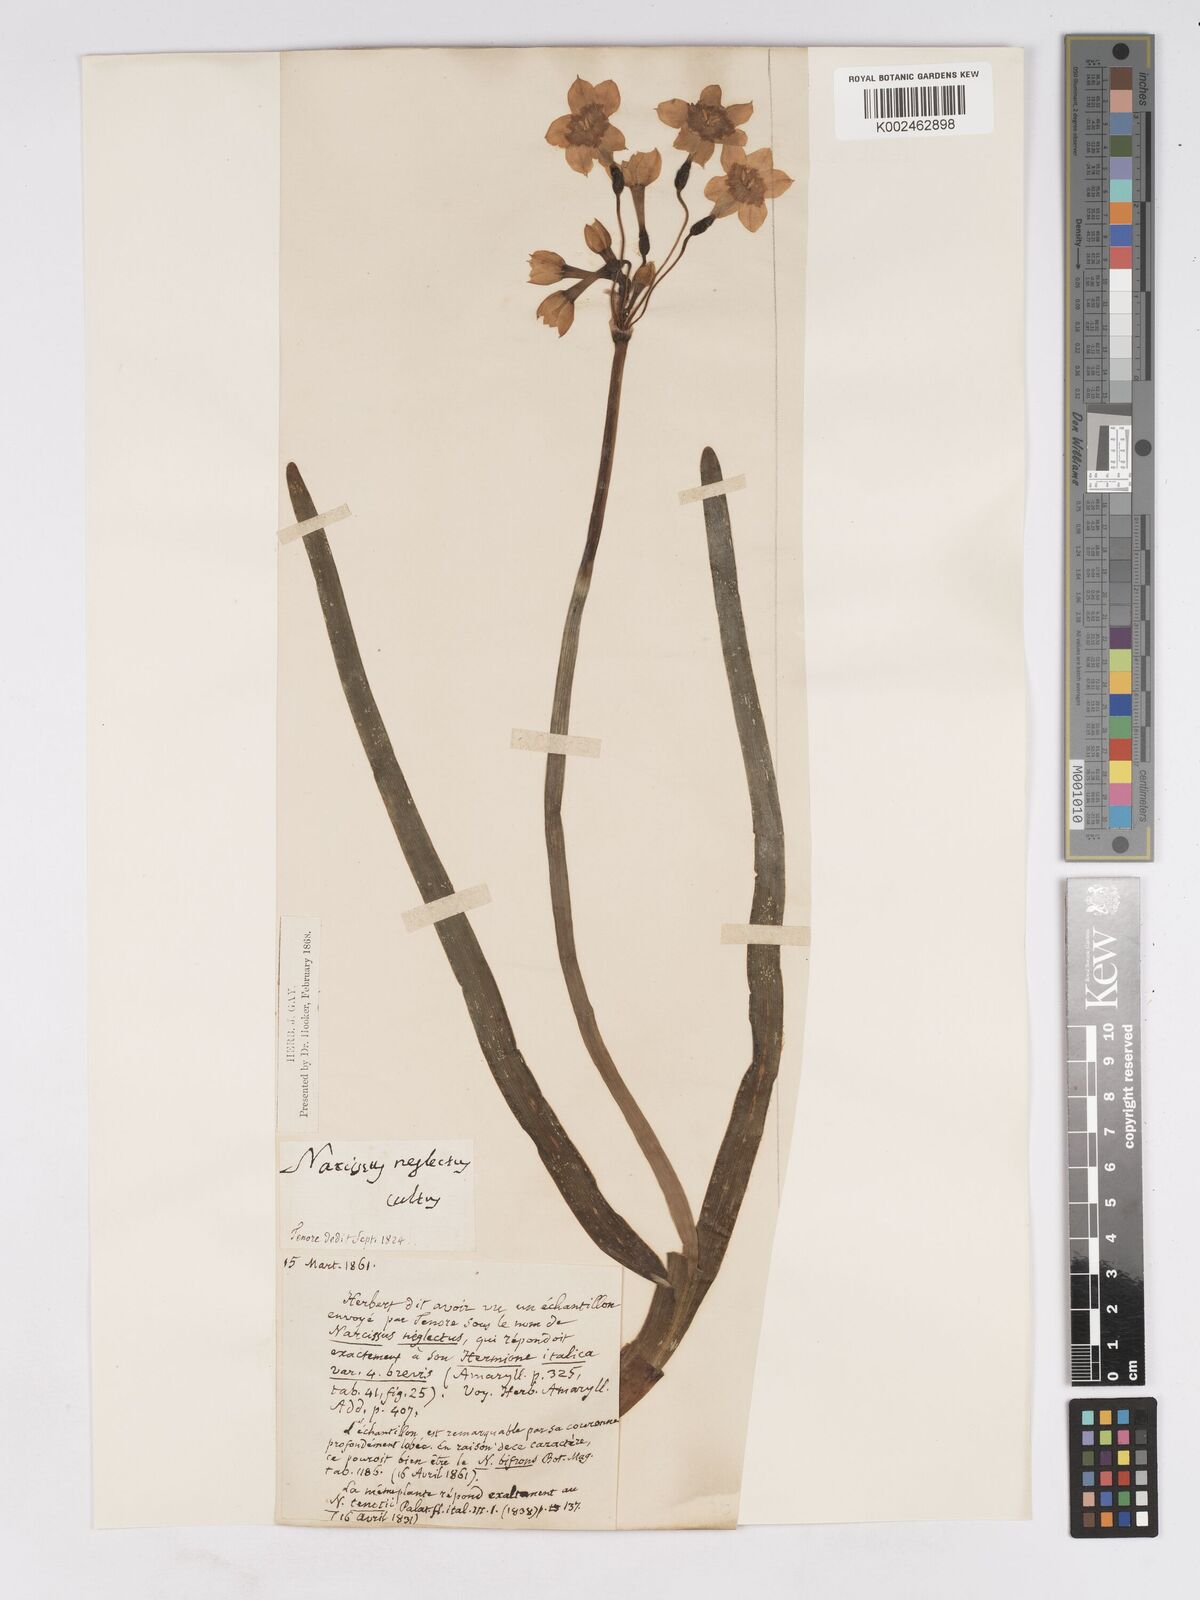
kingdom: Plantae
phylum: Tracheophyta
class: Liliopsida
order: Asparagales
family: Amaryllidaceae
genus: Narcissus
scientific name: Narcissus tazetta
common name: Bunch-flowered daffodil
